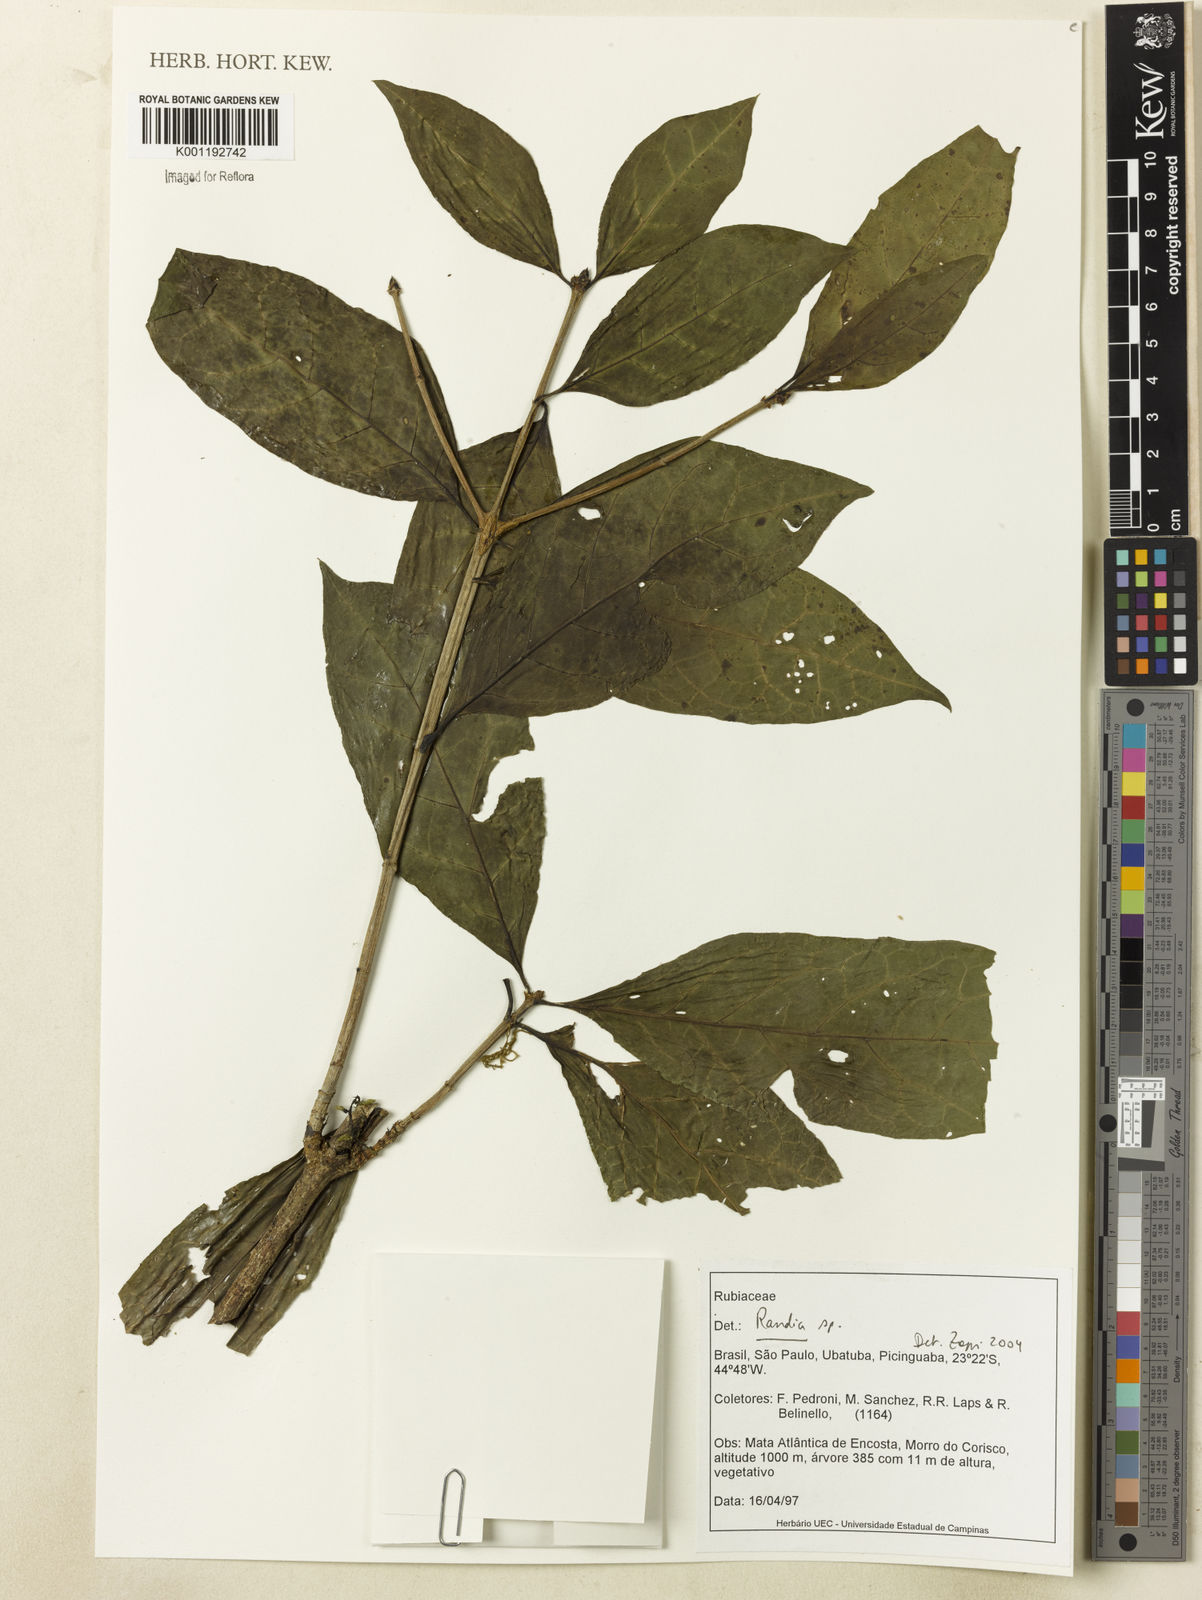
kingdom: Plantae
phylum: Tracheophyta
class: Magnoliopsida
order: Gentianales
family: Rubiaceae
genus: Randia
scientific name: Randia
